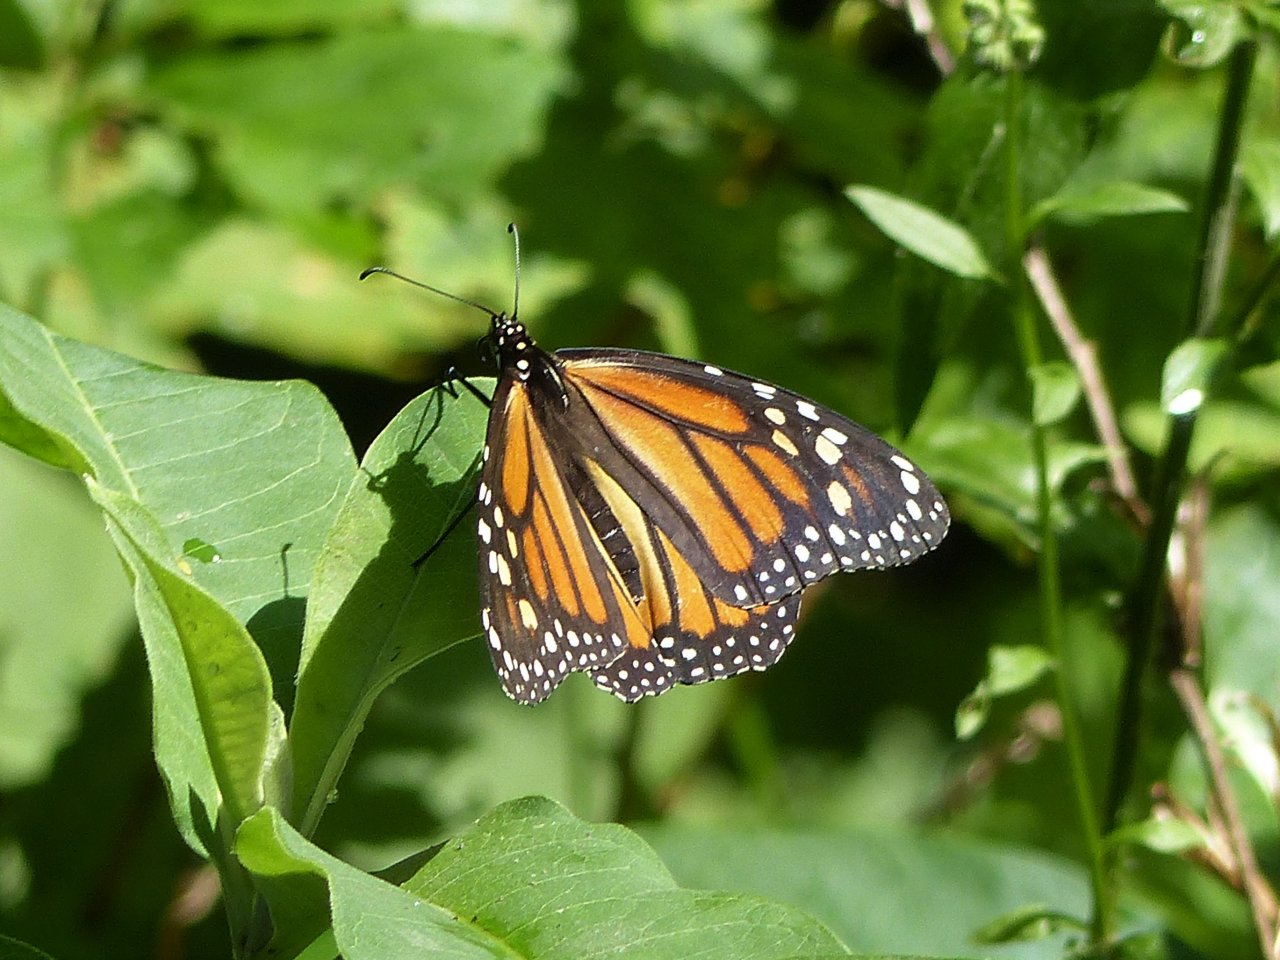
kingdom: Animalia
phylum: Arthropoda
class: Insecta
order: Lepidoptera
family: Nymphalidae
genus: Danaus
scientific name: Danaus plexippus
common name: Monarch
